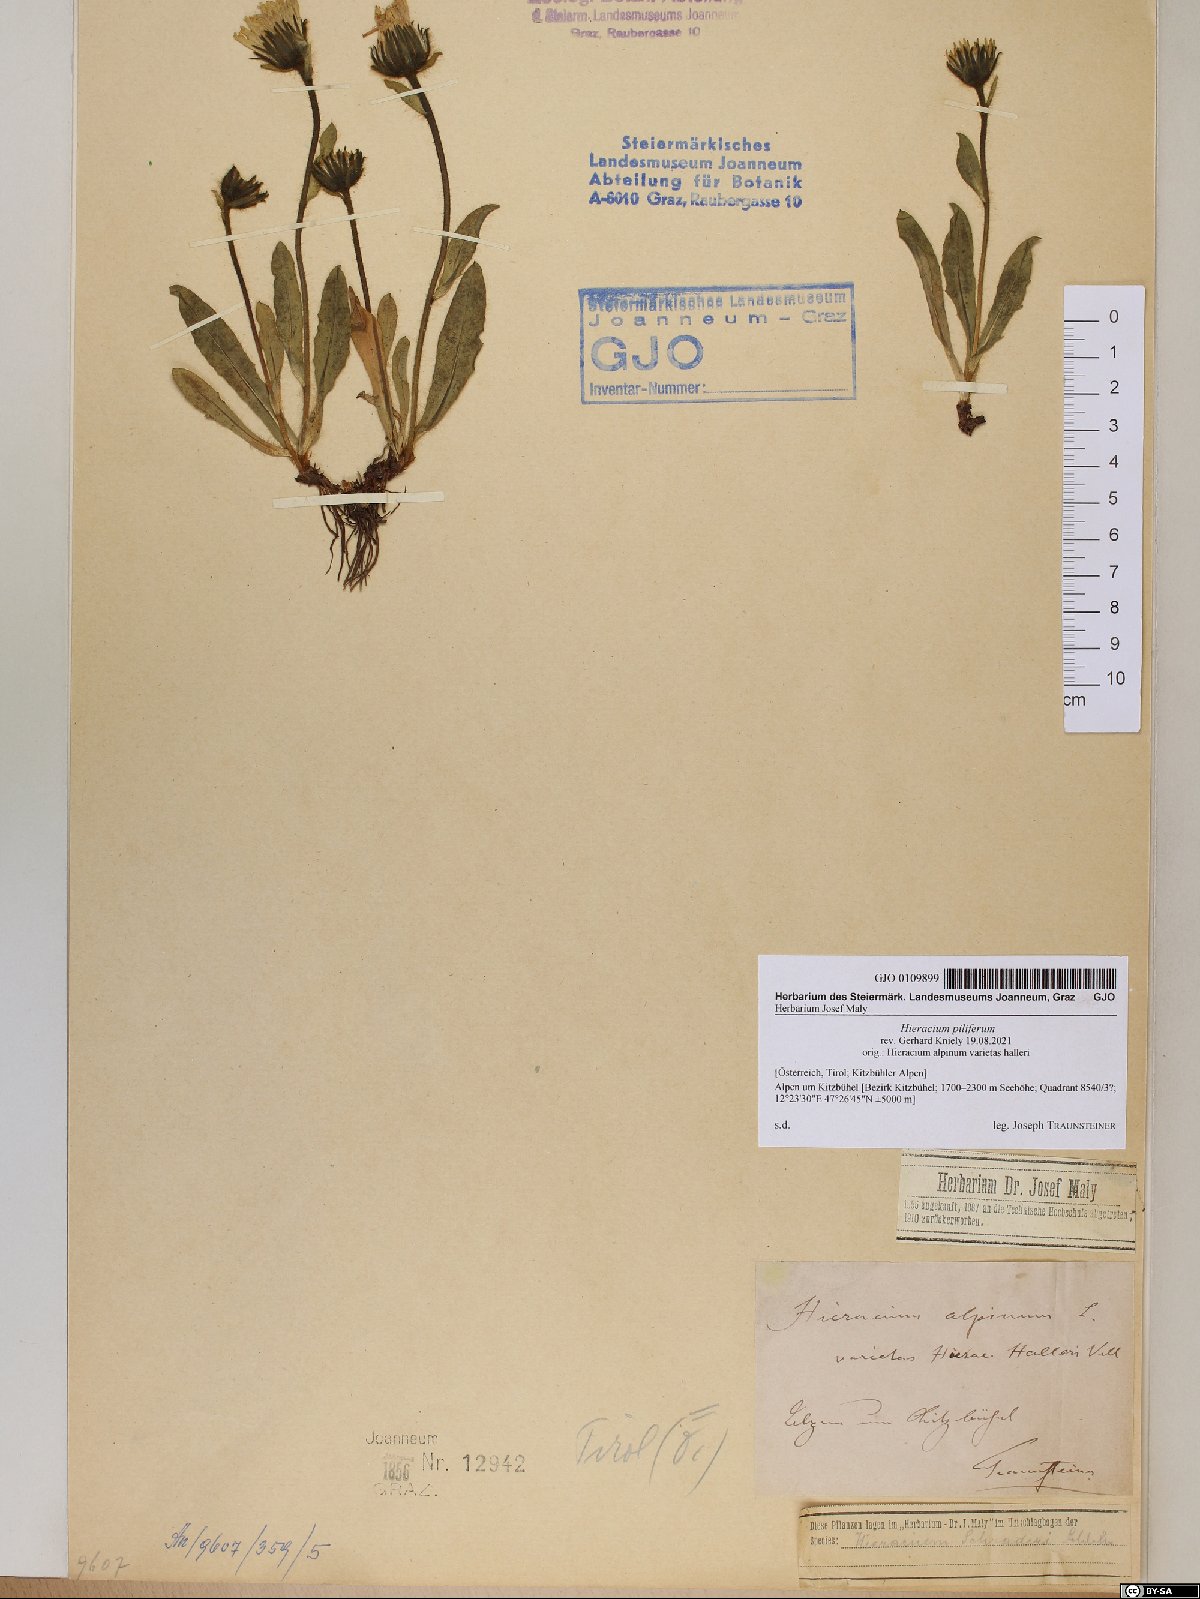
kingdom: Plantae
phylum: Tracheophyta
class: Magnoliopsida
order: Asterales
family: Asteraceae
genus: Hieracium
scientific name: Hieracium piliferum
